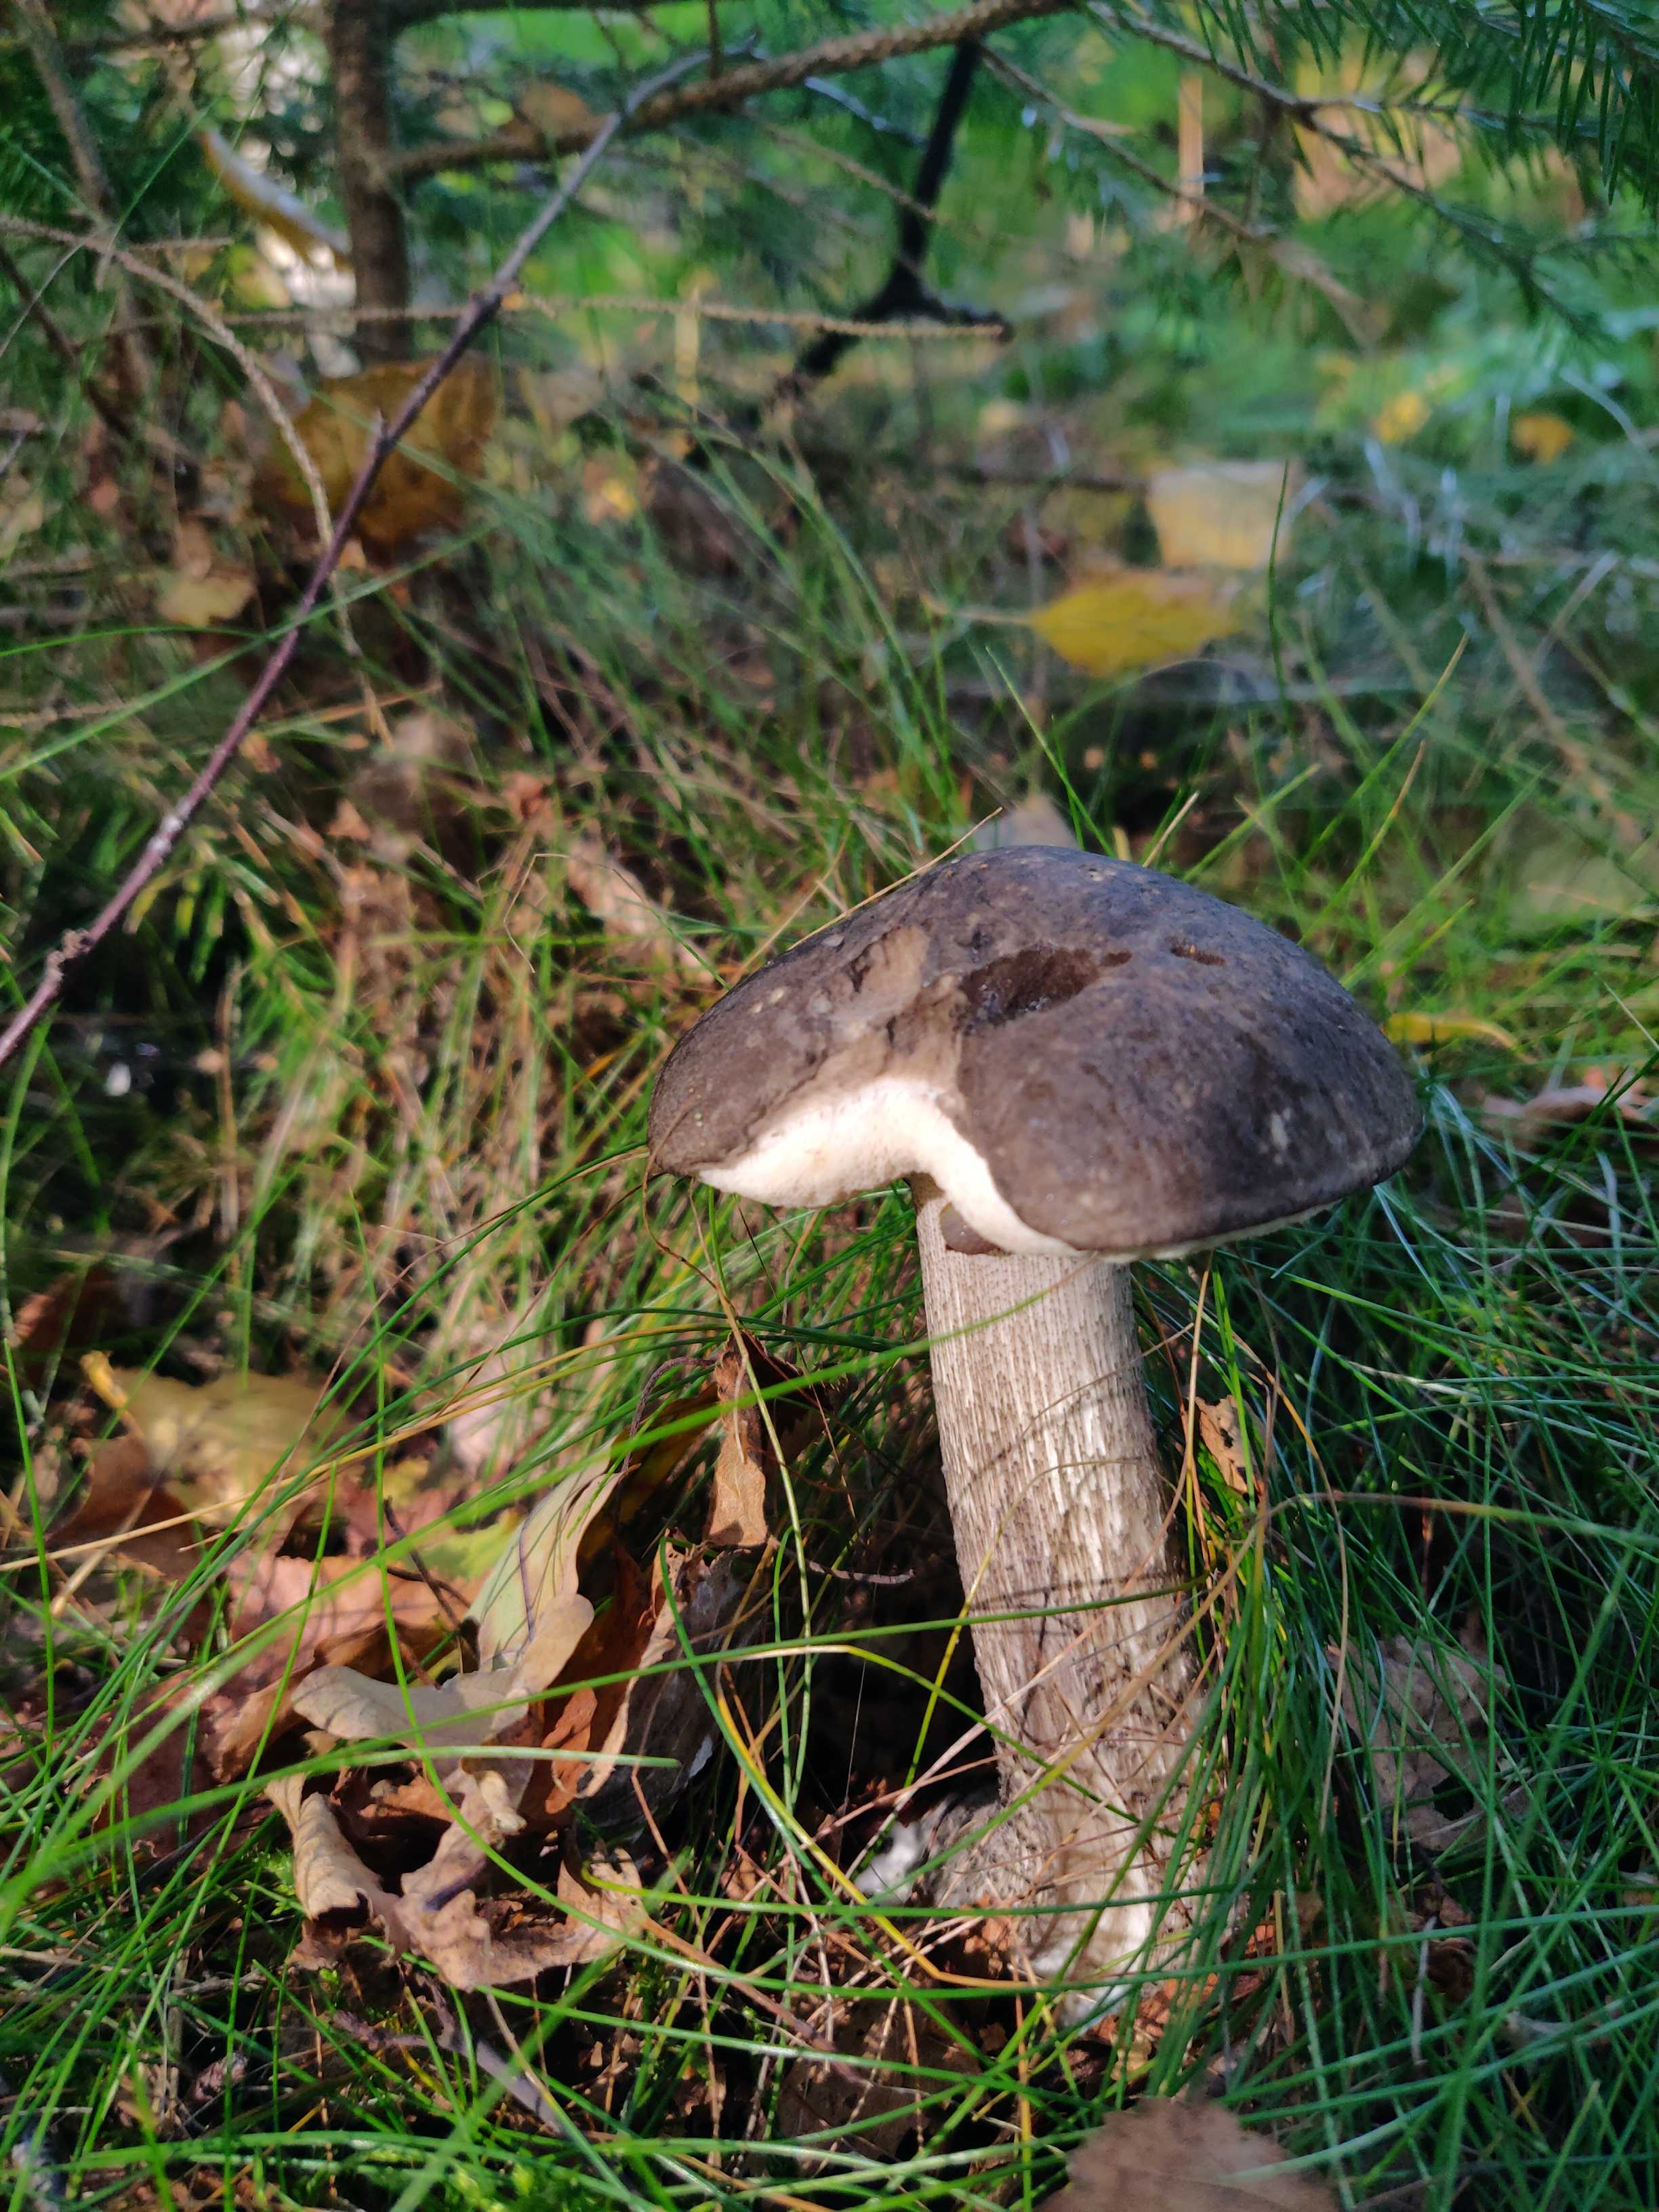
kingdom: Fungi
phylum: Basidiomycota
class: Agaricomycetes
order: Boletales
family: Boletaceae
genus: Leccinum
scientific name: Leccinum scabrum
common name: brun skælrørhat
